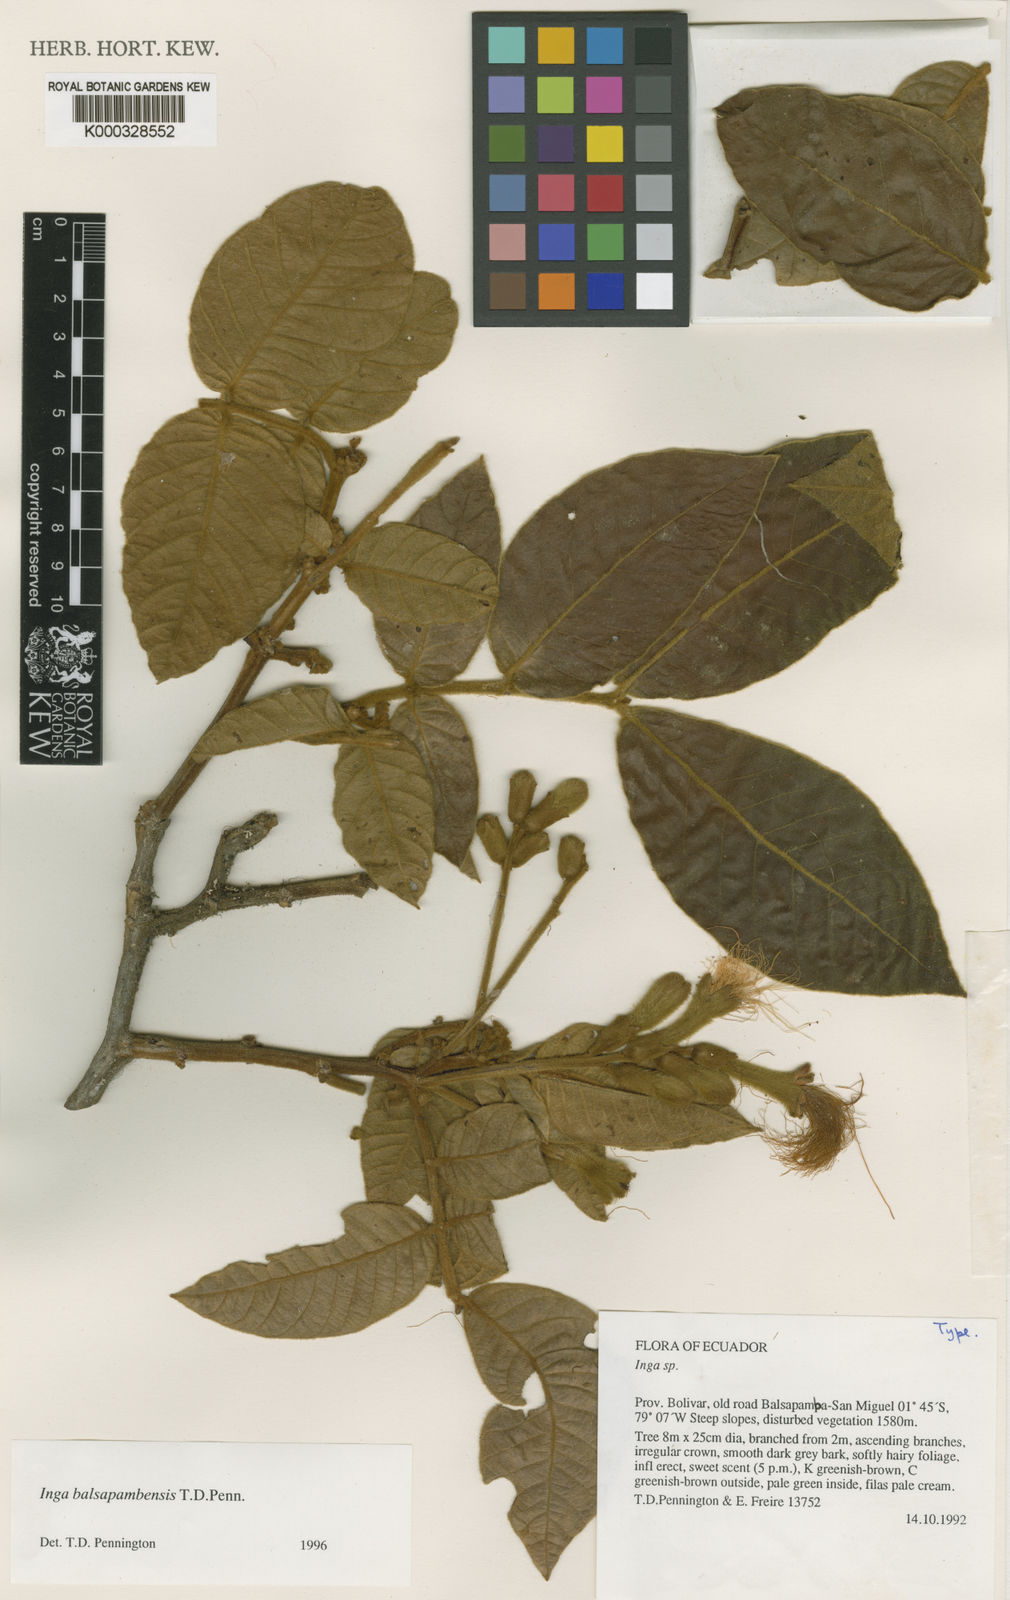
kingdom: Plantae
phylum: Tracheophyta
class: Magnoliopsida
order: Fabales
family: Fabaceae
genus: Inga
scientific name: Inga balsapambensis
